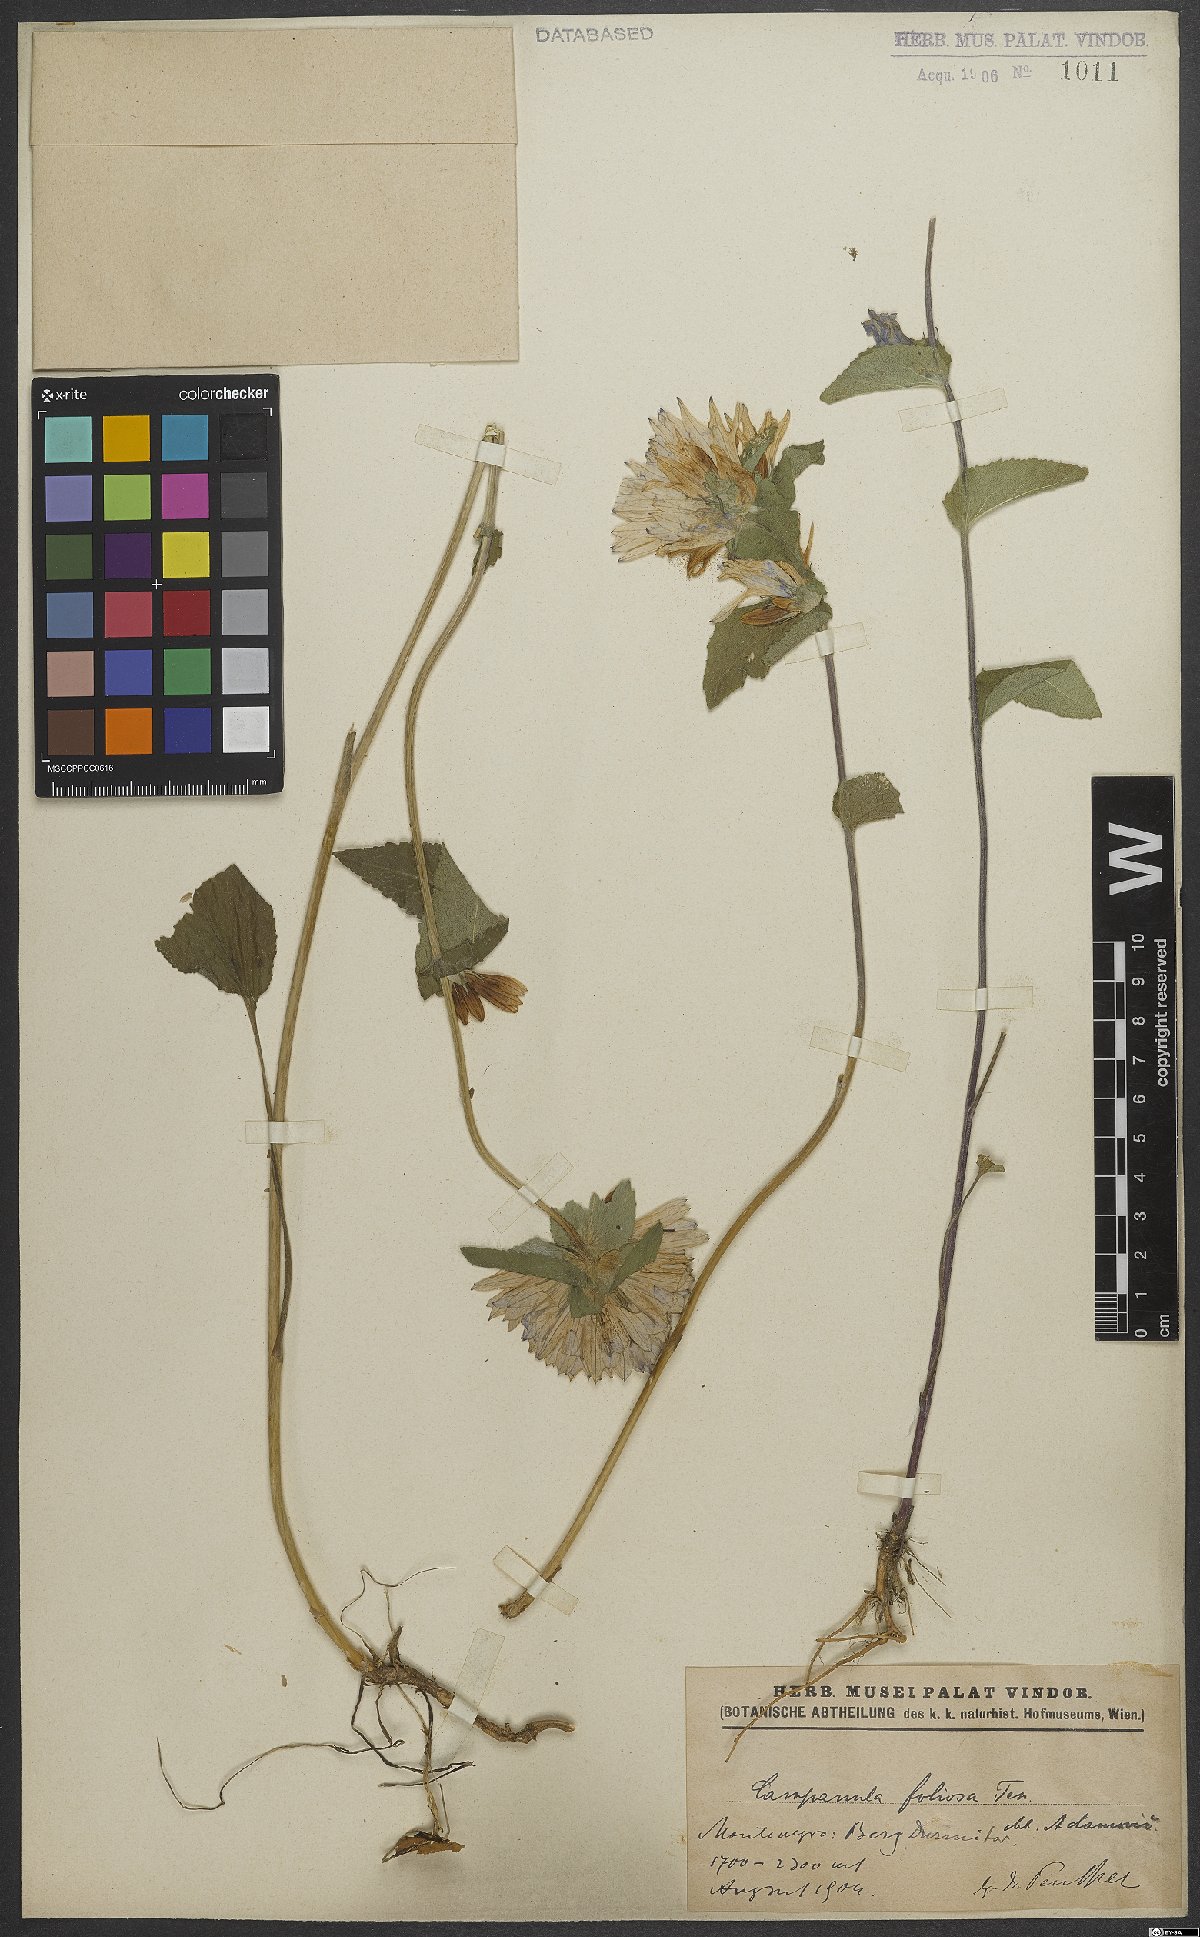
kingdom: Plantae
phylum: Tracheophyta
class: Magnoliopsida
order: Asterales
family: Campanulaceae
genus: Campanula
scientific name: Campanula foliosa
